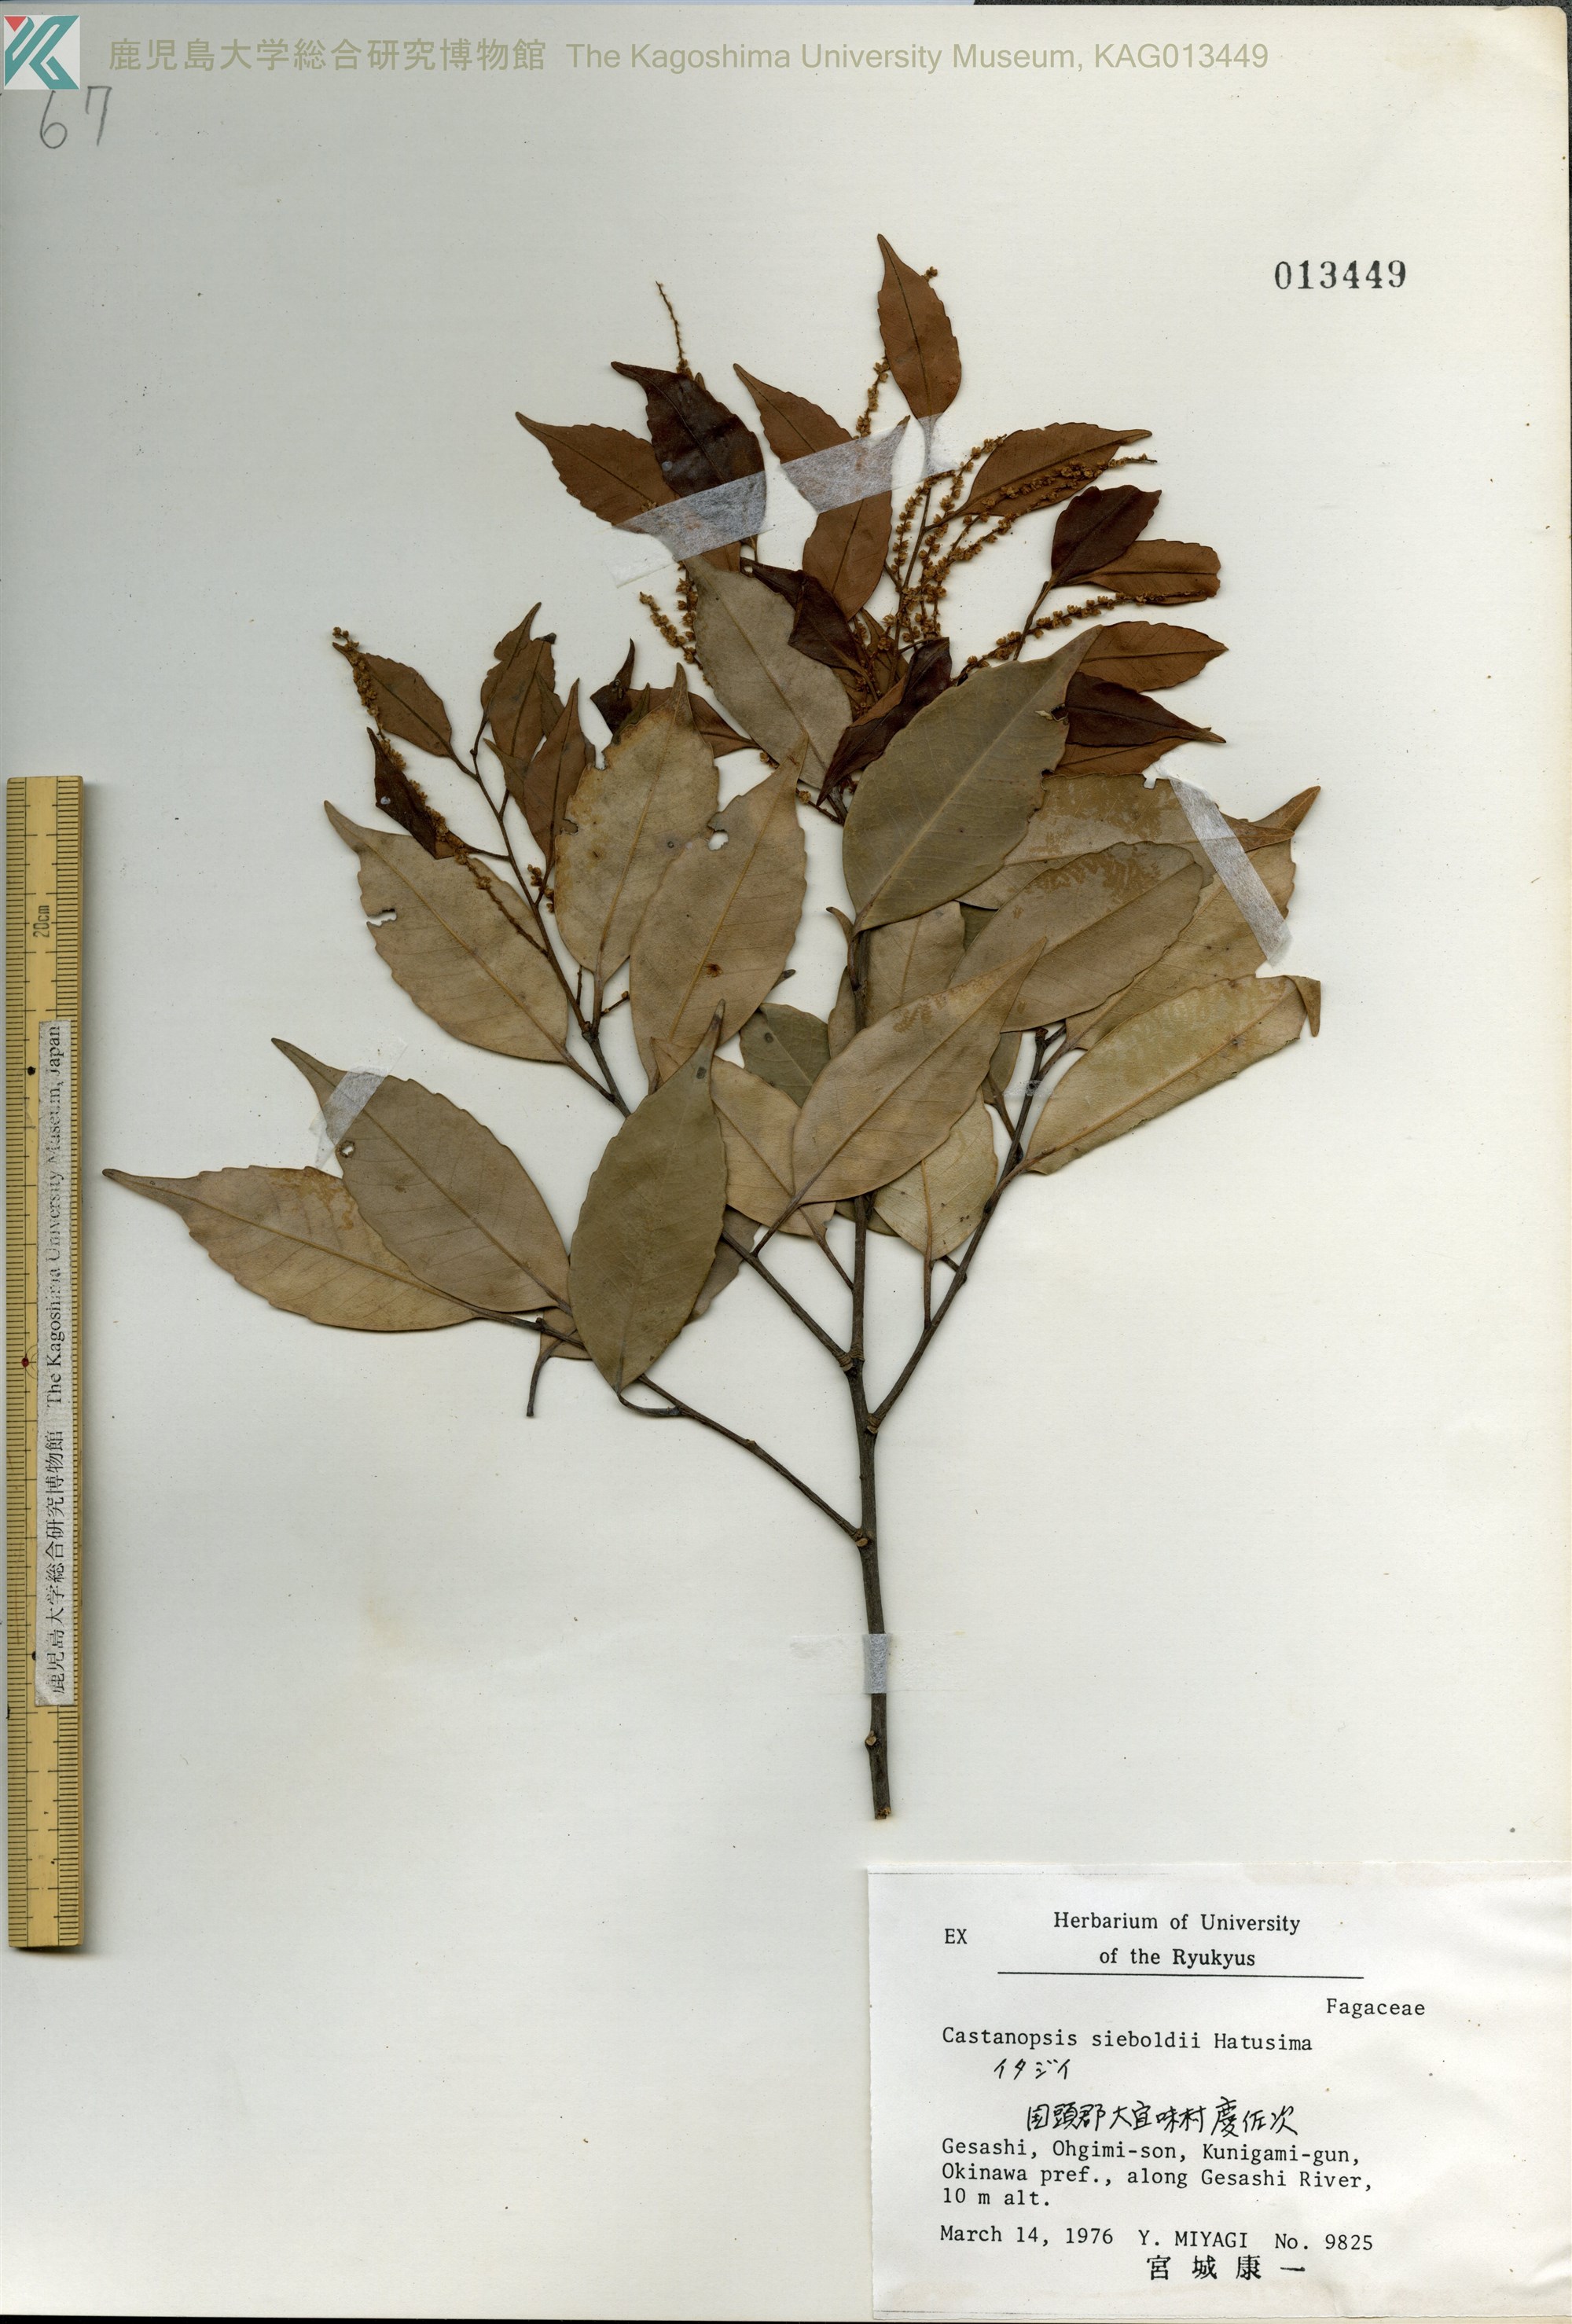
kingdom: Plantae
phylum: Tracheophyta
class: Magnoliopsida
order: Fagales
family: Fagaceae
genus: Castanopsis
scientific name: Castanopsis sieboldii
